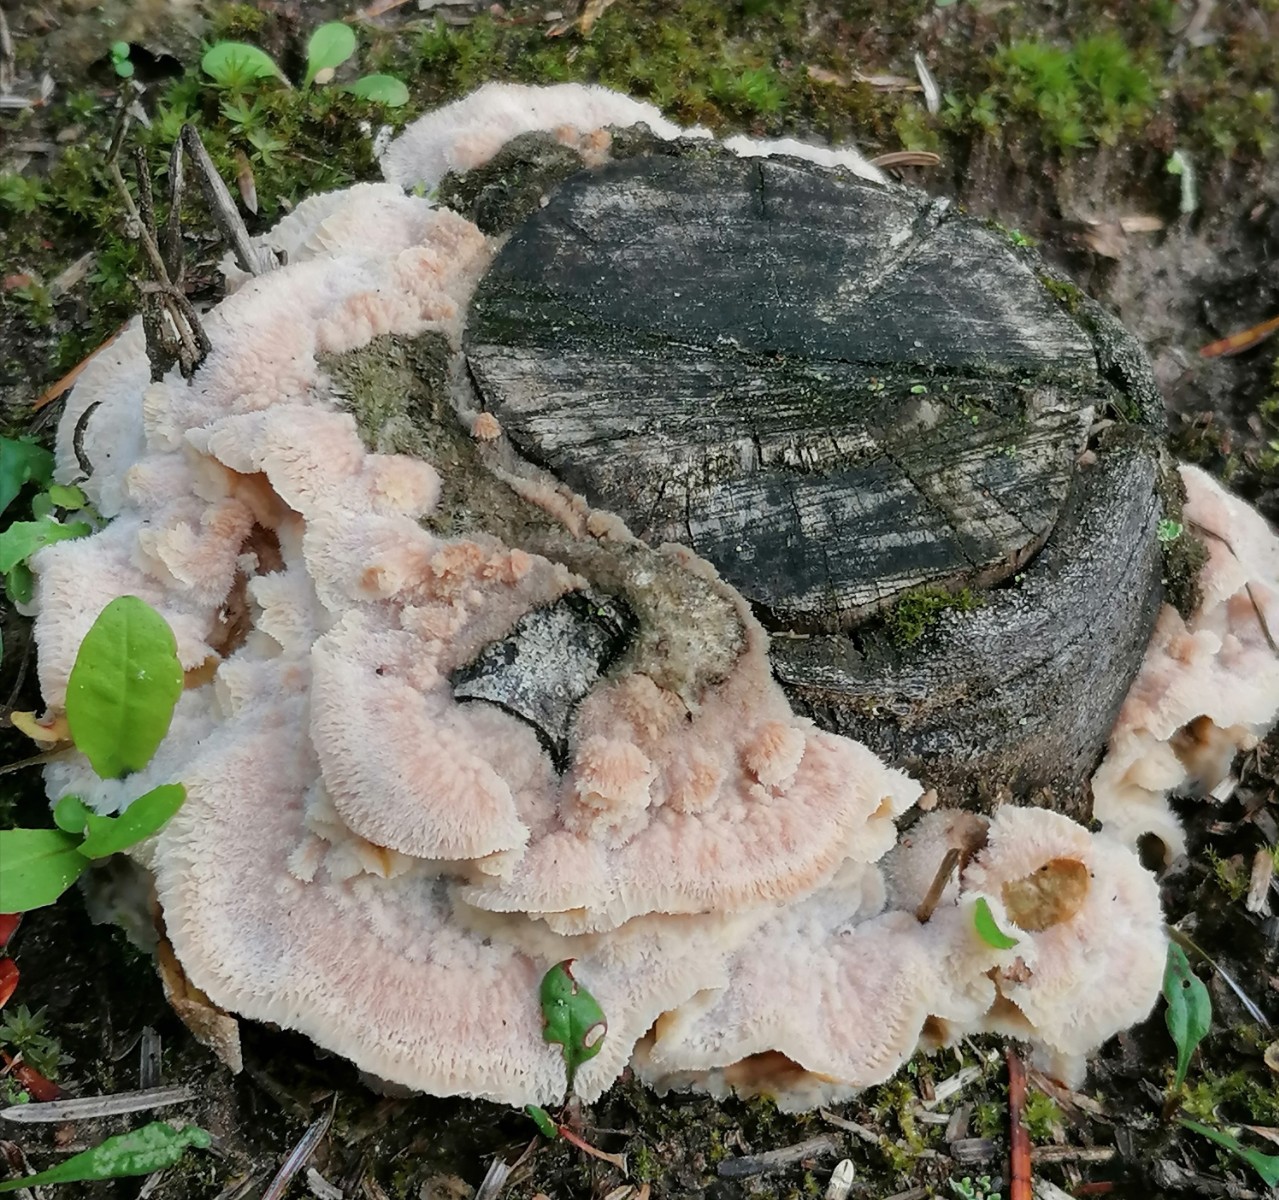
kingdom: Fungi
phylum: Basidiomycota
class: Agaricomycetes
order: Polyporales
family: Meruliaceae
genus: Phlebia
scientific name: Phlebia tremellosa
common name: bævrende åresvamp
